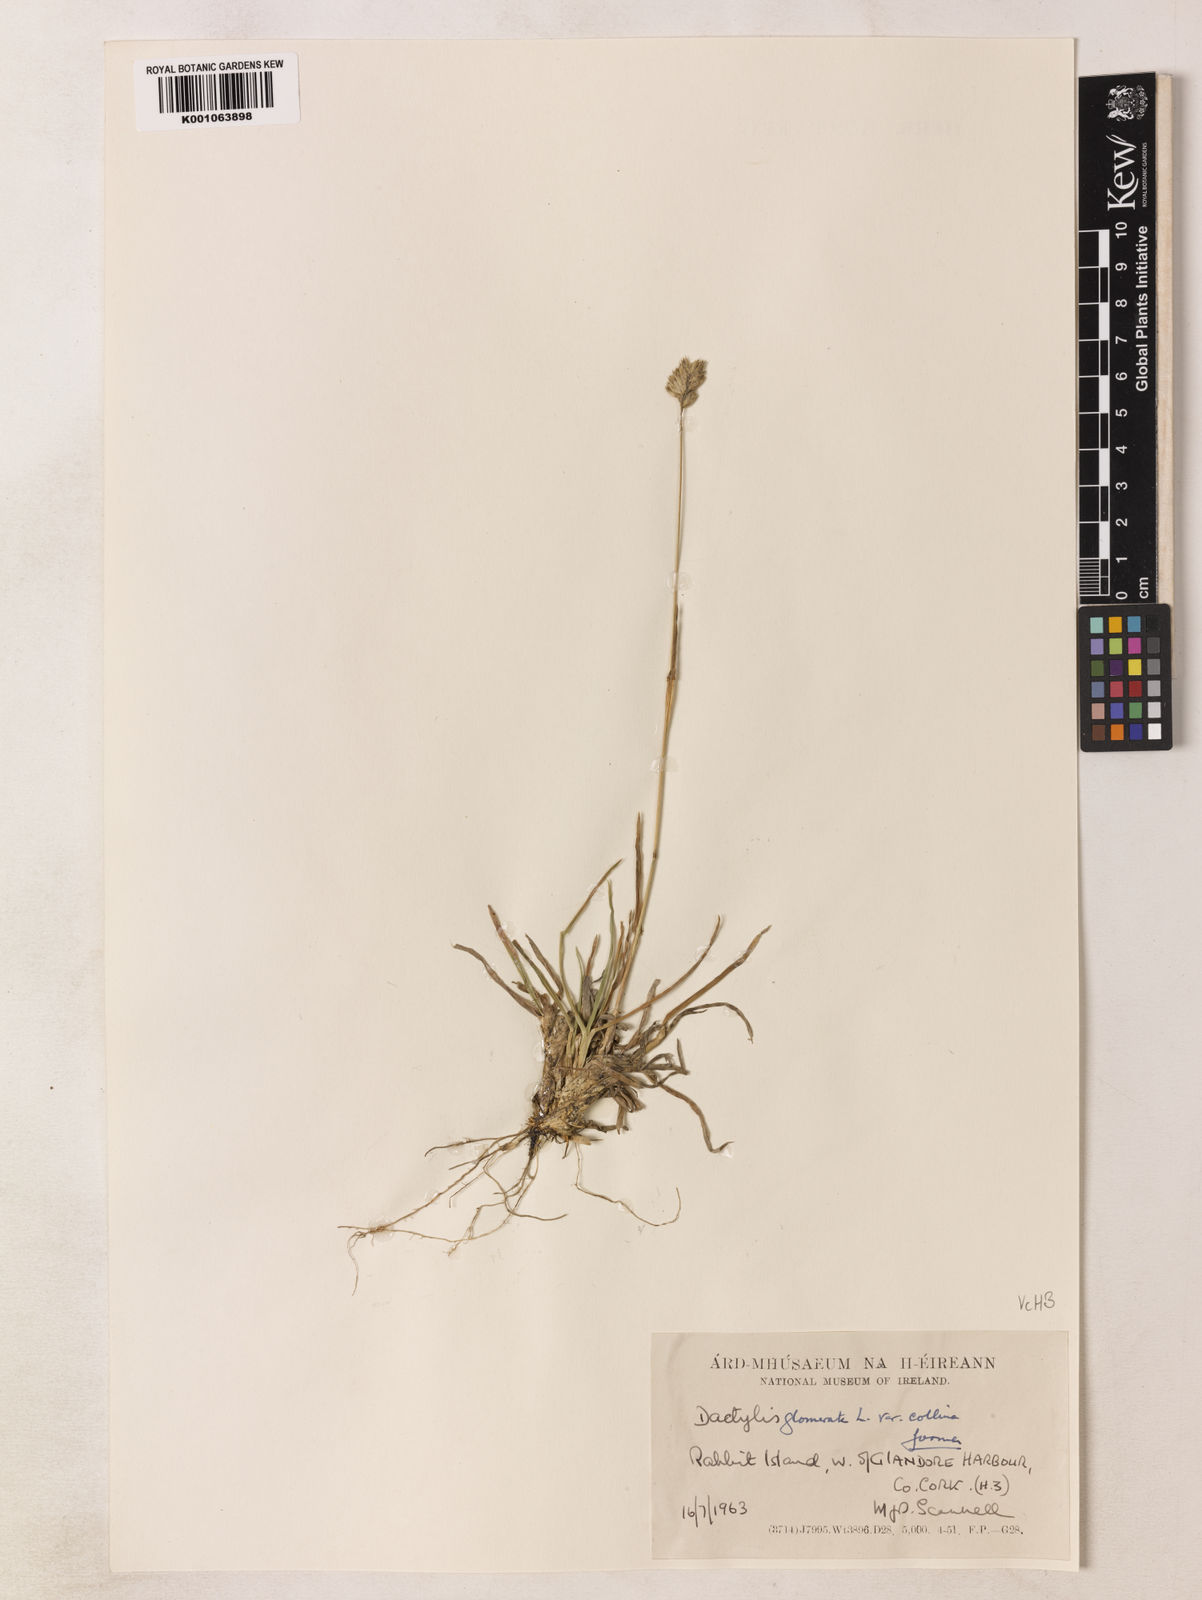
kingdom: Plantae
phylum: Tracheophyta
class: Liliopsida
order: Poales
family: Poaceae
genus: Dactylis
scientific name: Dactylis glomerata
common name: Orchardgrass
